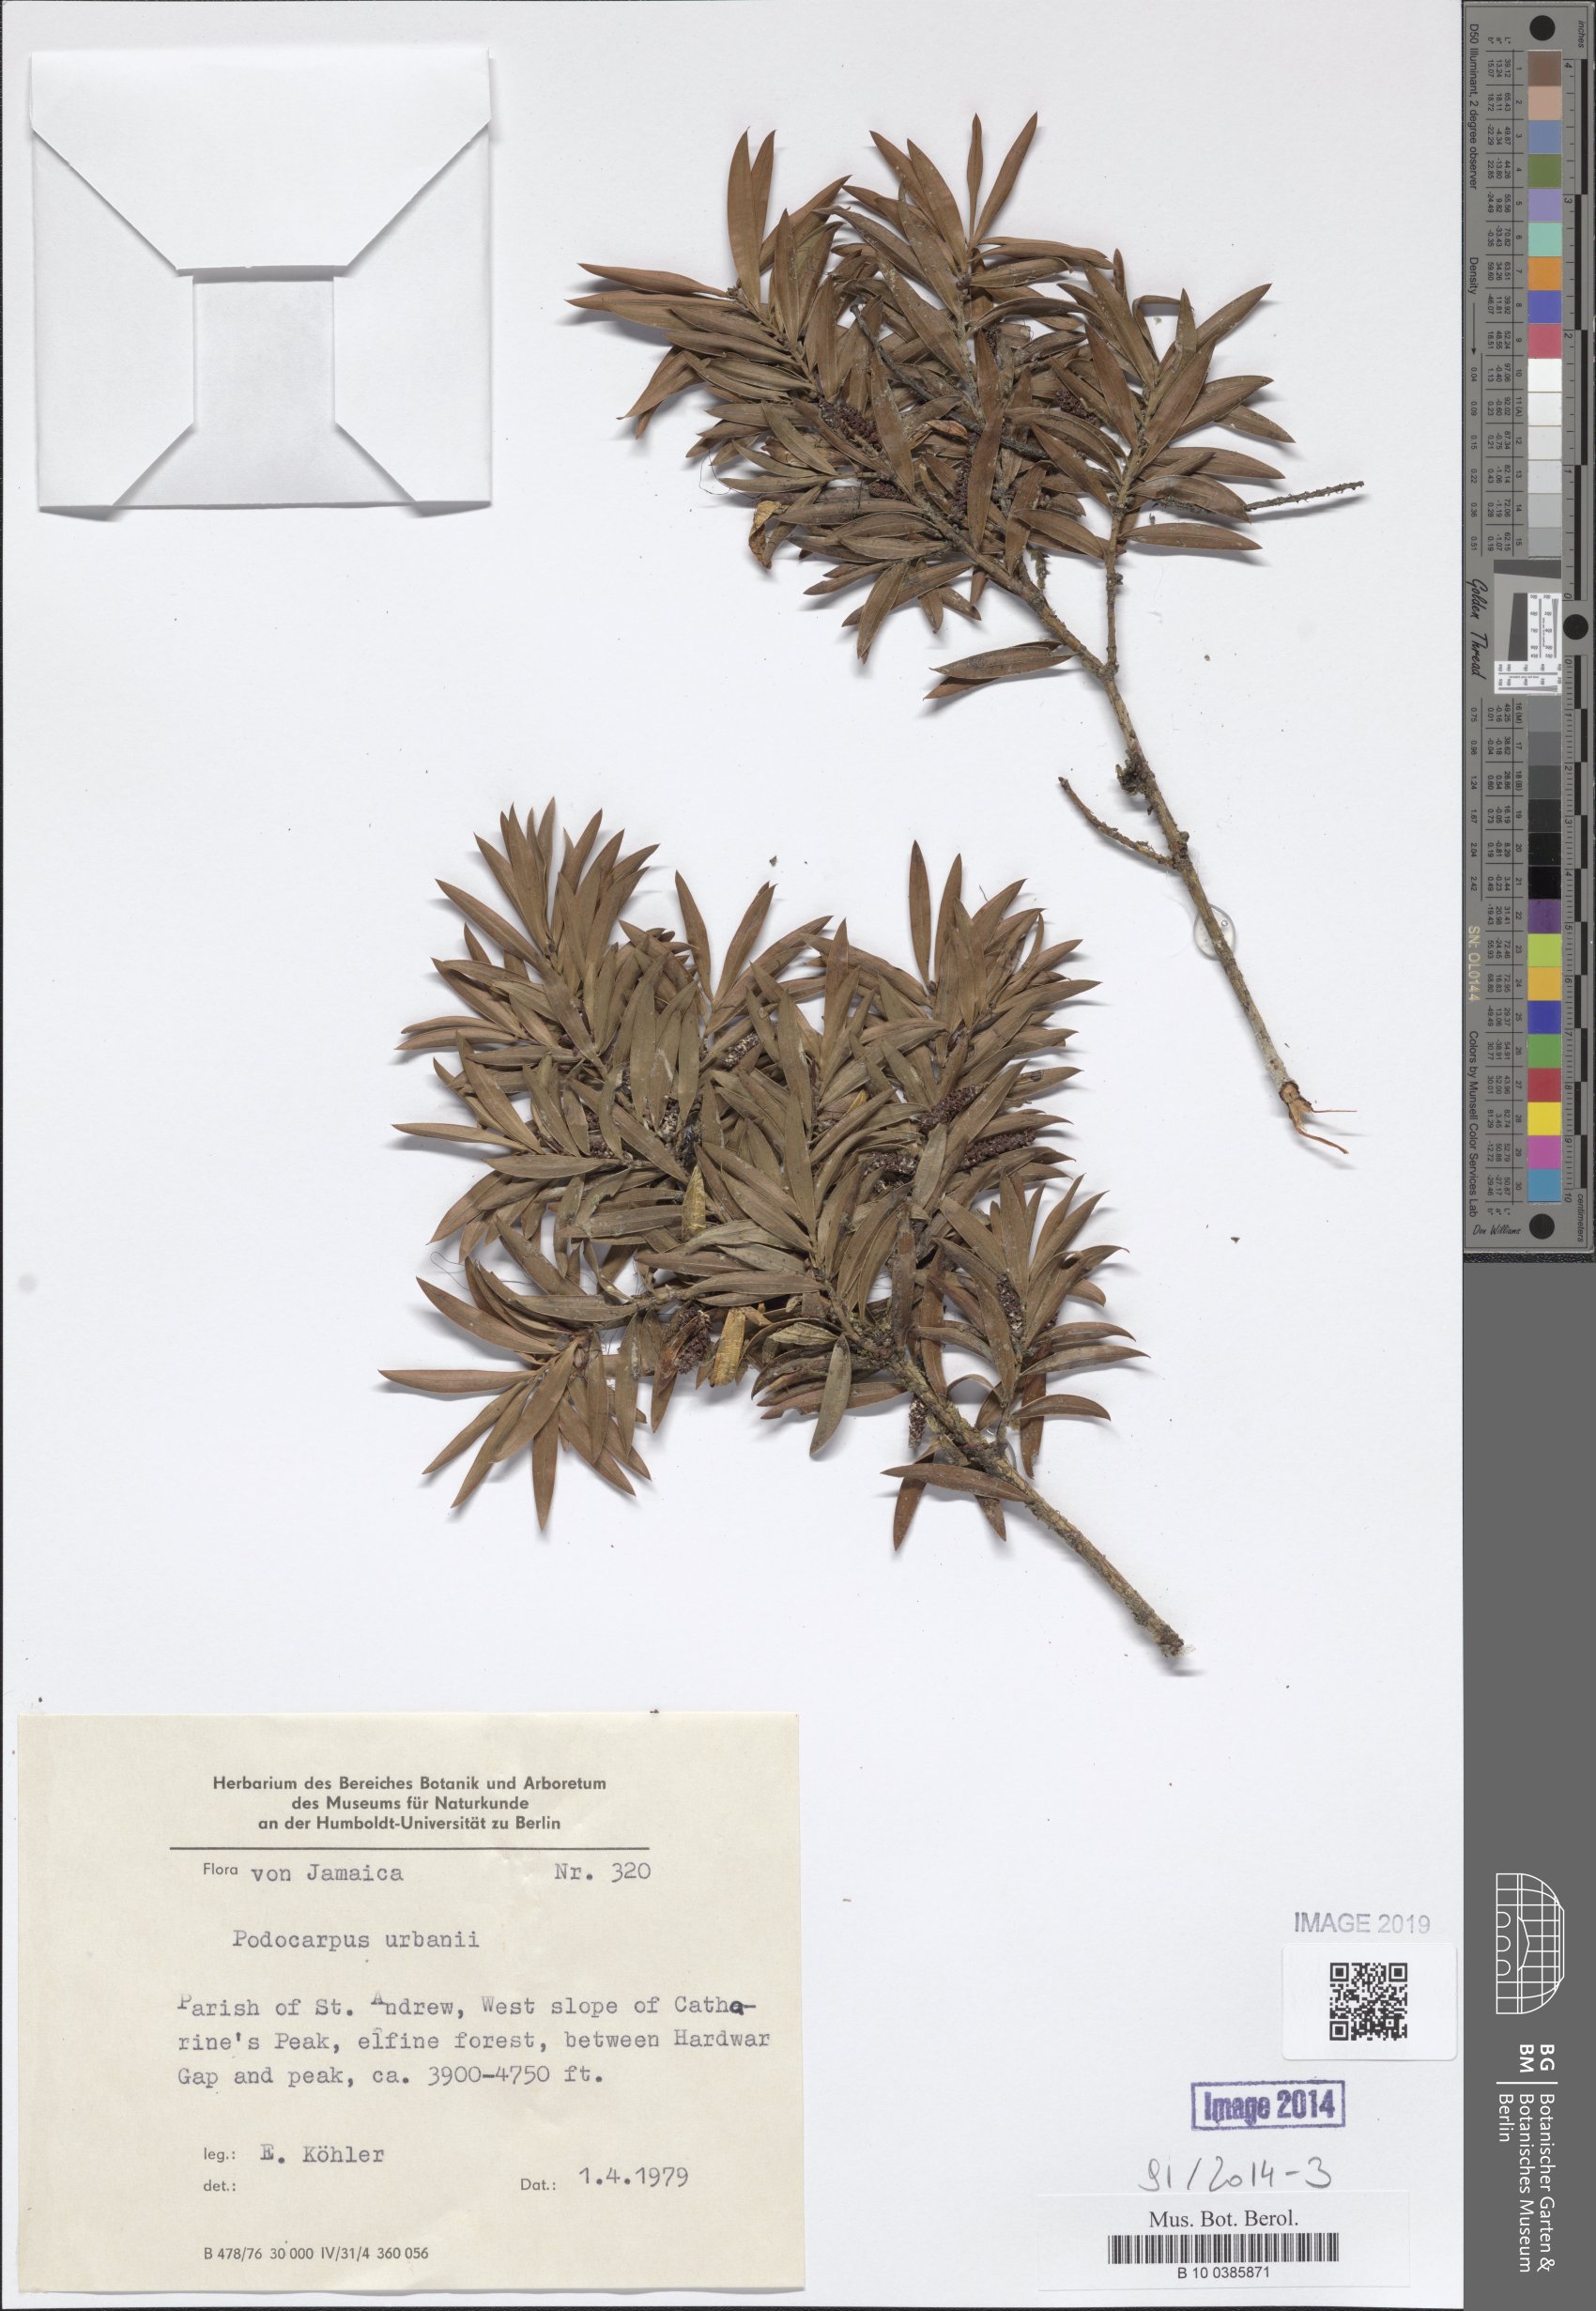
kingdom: Plantae
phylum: Tracheophyta
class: Pinopsida
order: Pinales
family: Podocarpaceae
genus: Podocarpus
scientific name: Podocarpus urbanii
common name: Blue mountain yacca
